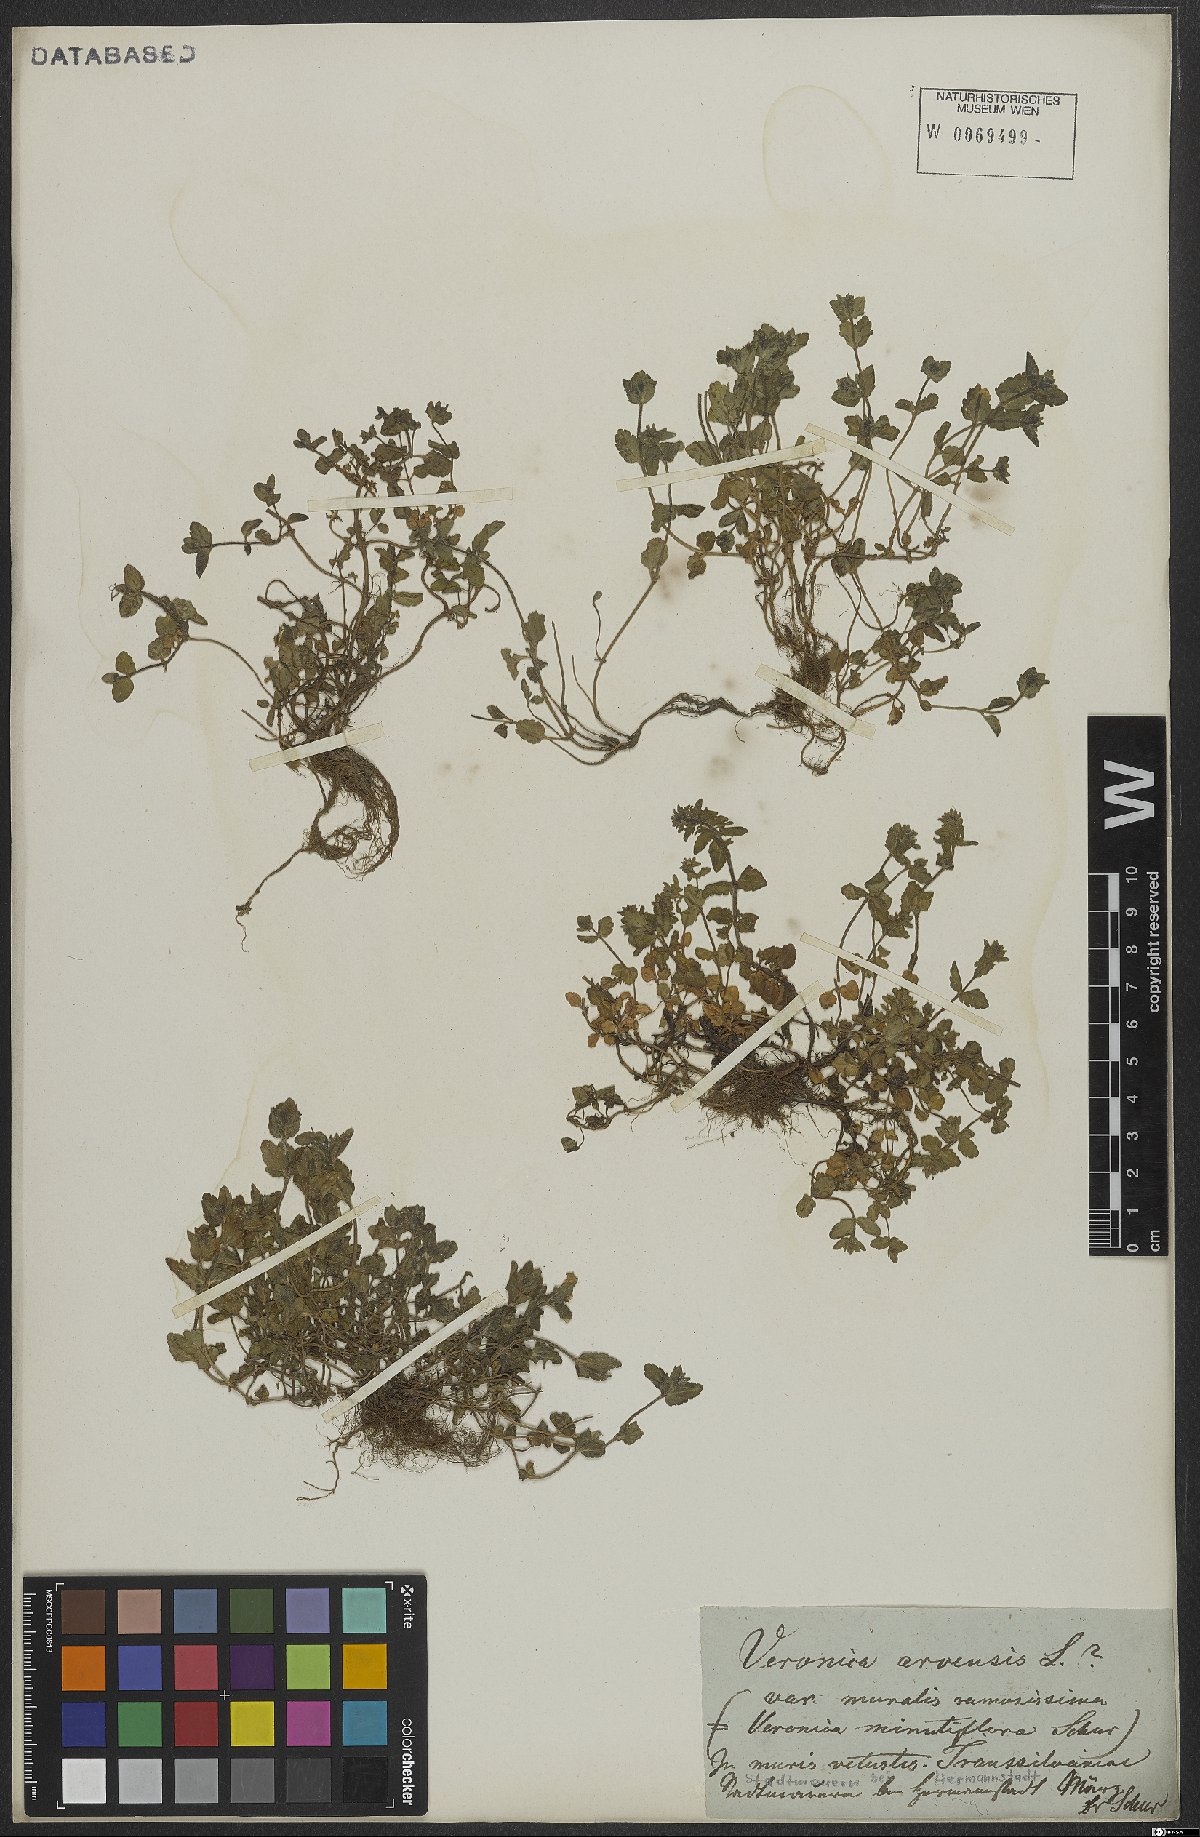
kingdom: Plantae
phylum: Tracheophyta
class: Magnoliopsida
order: Lamiales
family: Plantaginaceae
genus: Veronica
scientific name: Veronica arvensis
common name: Corn speedwell
